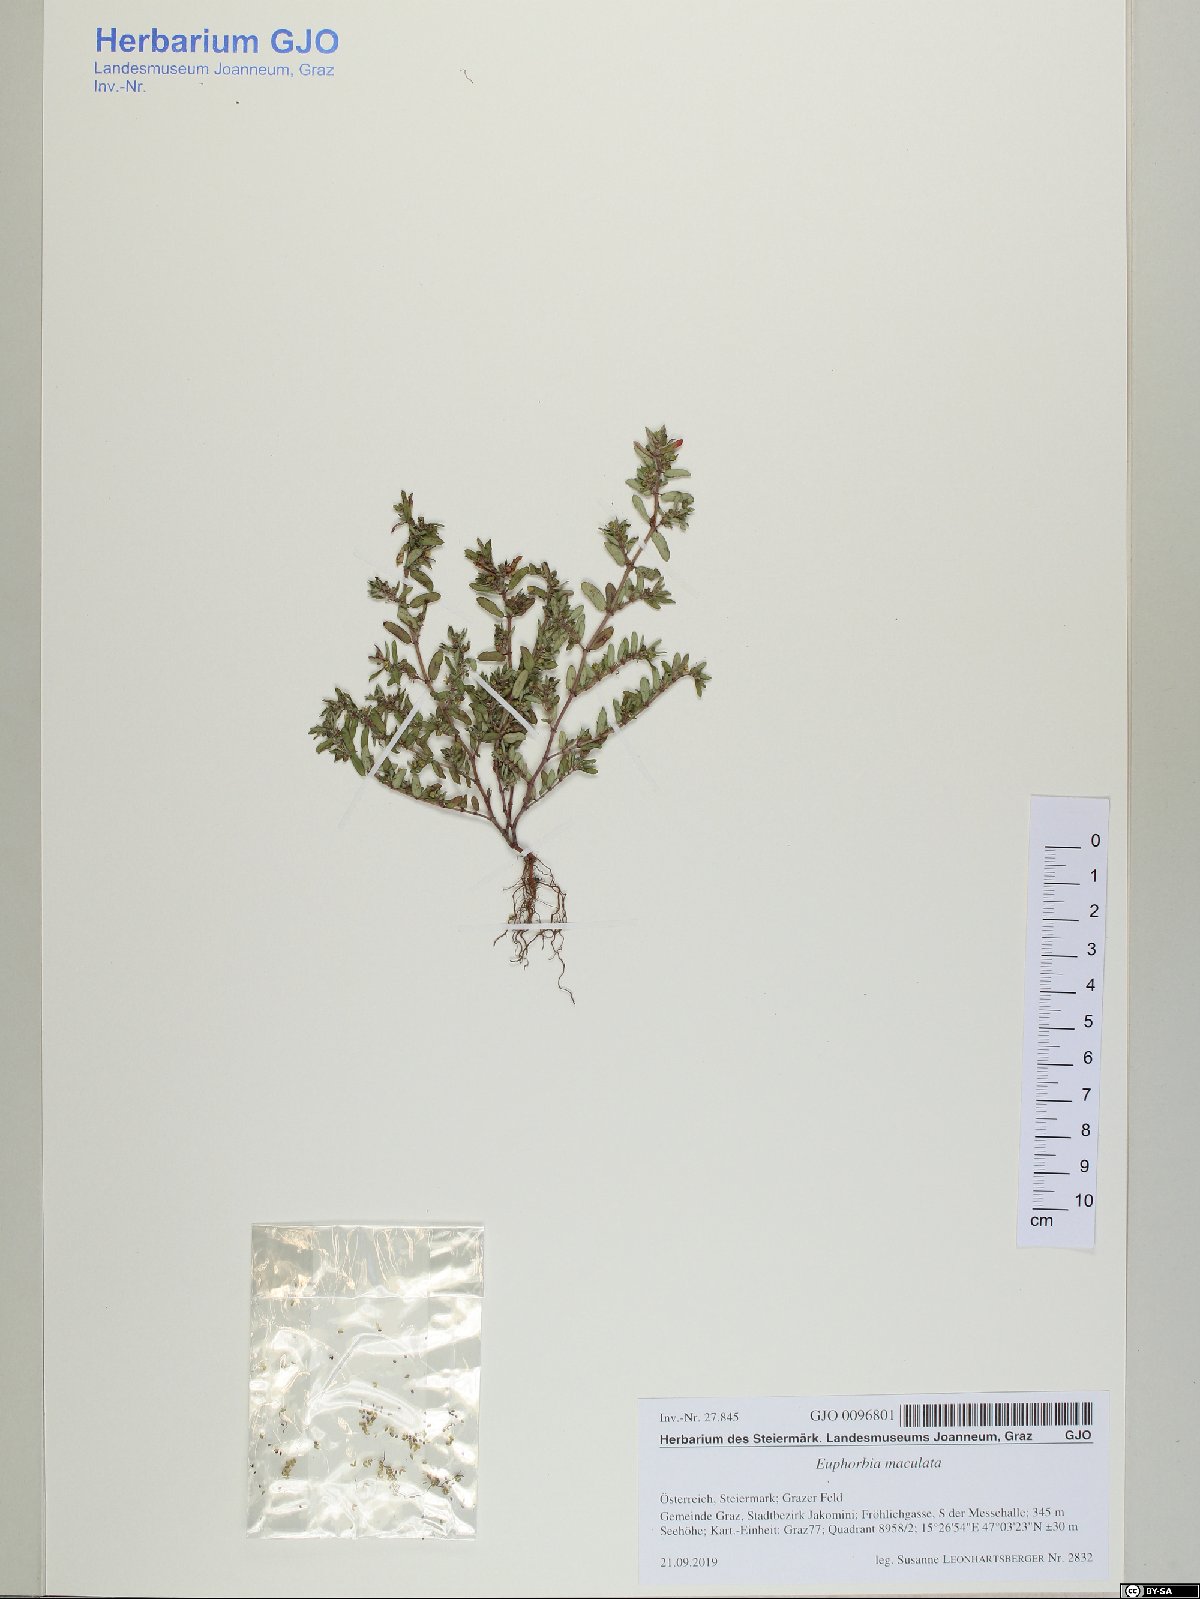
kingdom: Plantae
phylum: Tracheophyta
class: Magnoliopsida
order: Malpighiales
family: Euphorbiaceae
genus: Euphorbia
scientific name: Euphorbia maculata
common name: Spotted spurge
